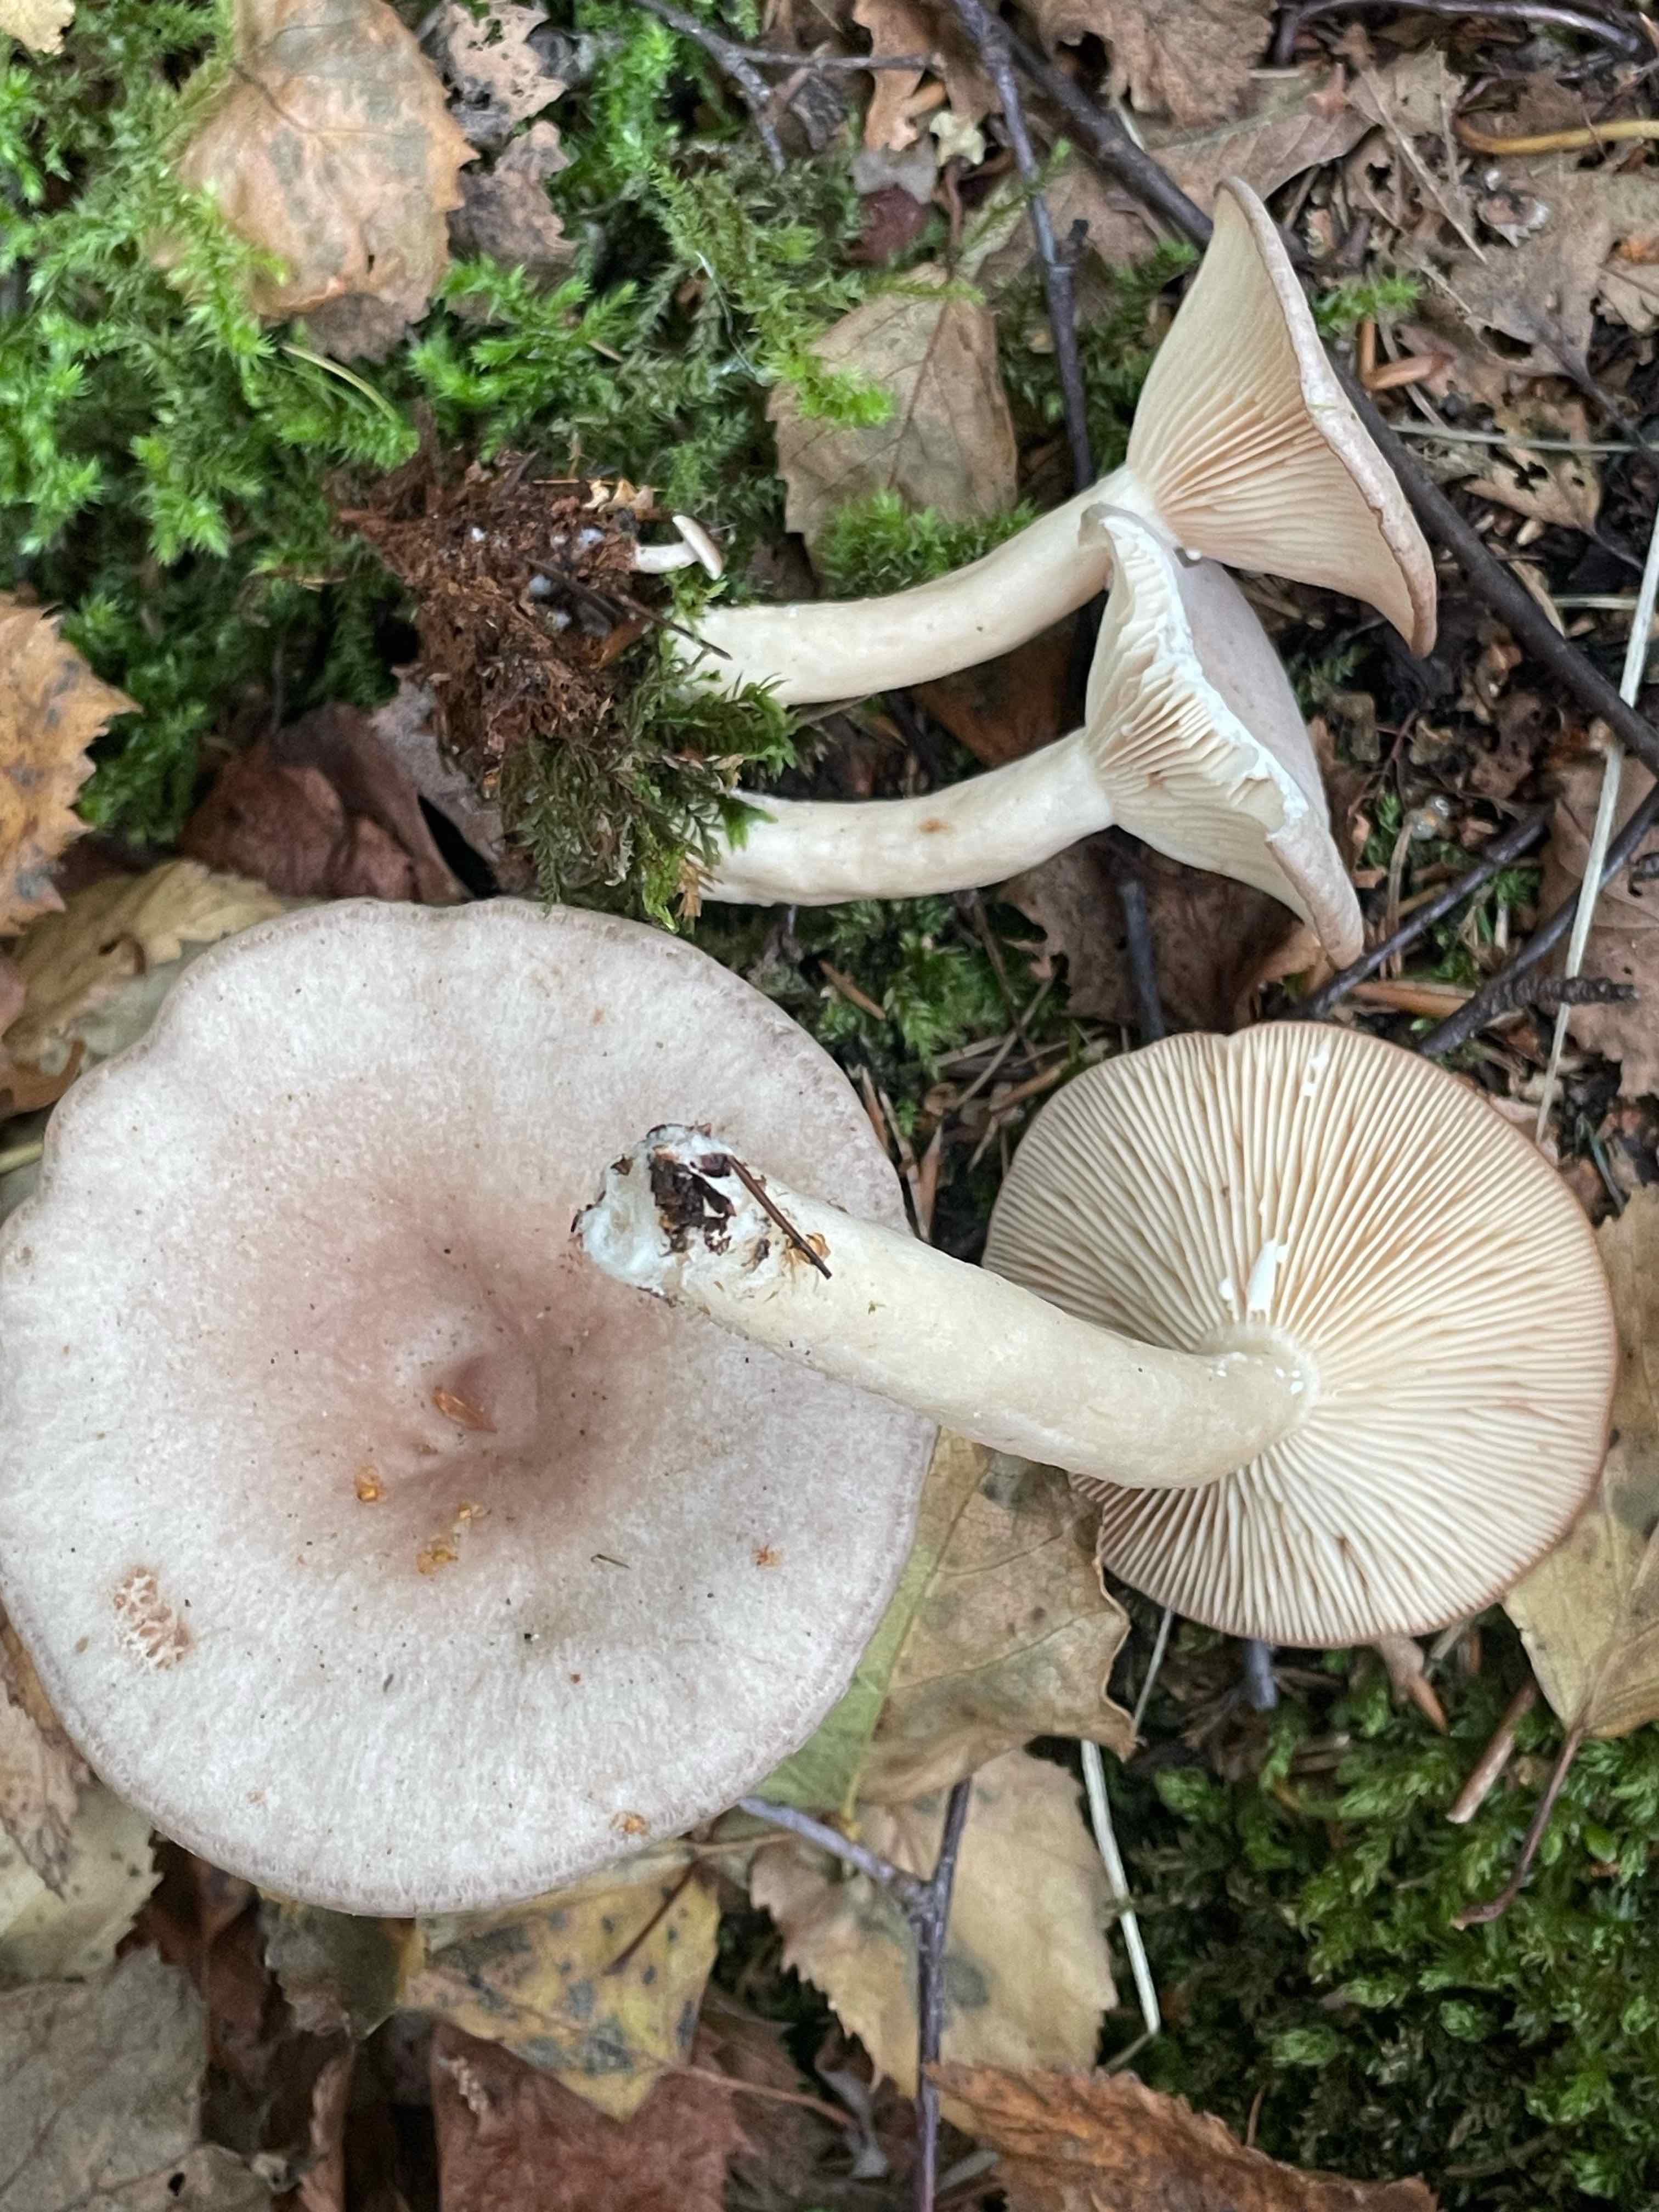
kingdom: Fungi
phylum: Basidiomycota
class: Agaricomycetes
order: Russulales
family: Russulaceae
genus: Lactarius
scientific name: Lactarius vietus
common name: violetgrå mælkehat
